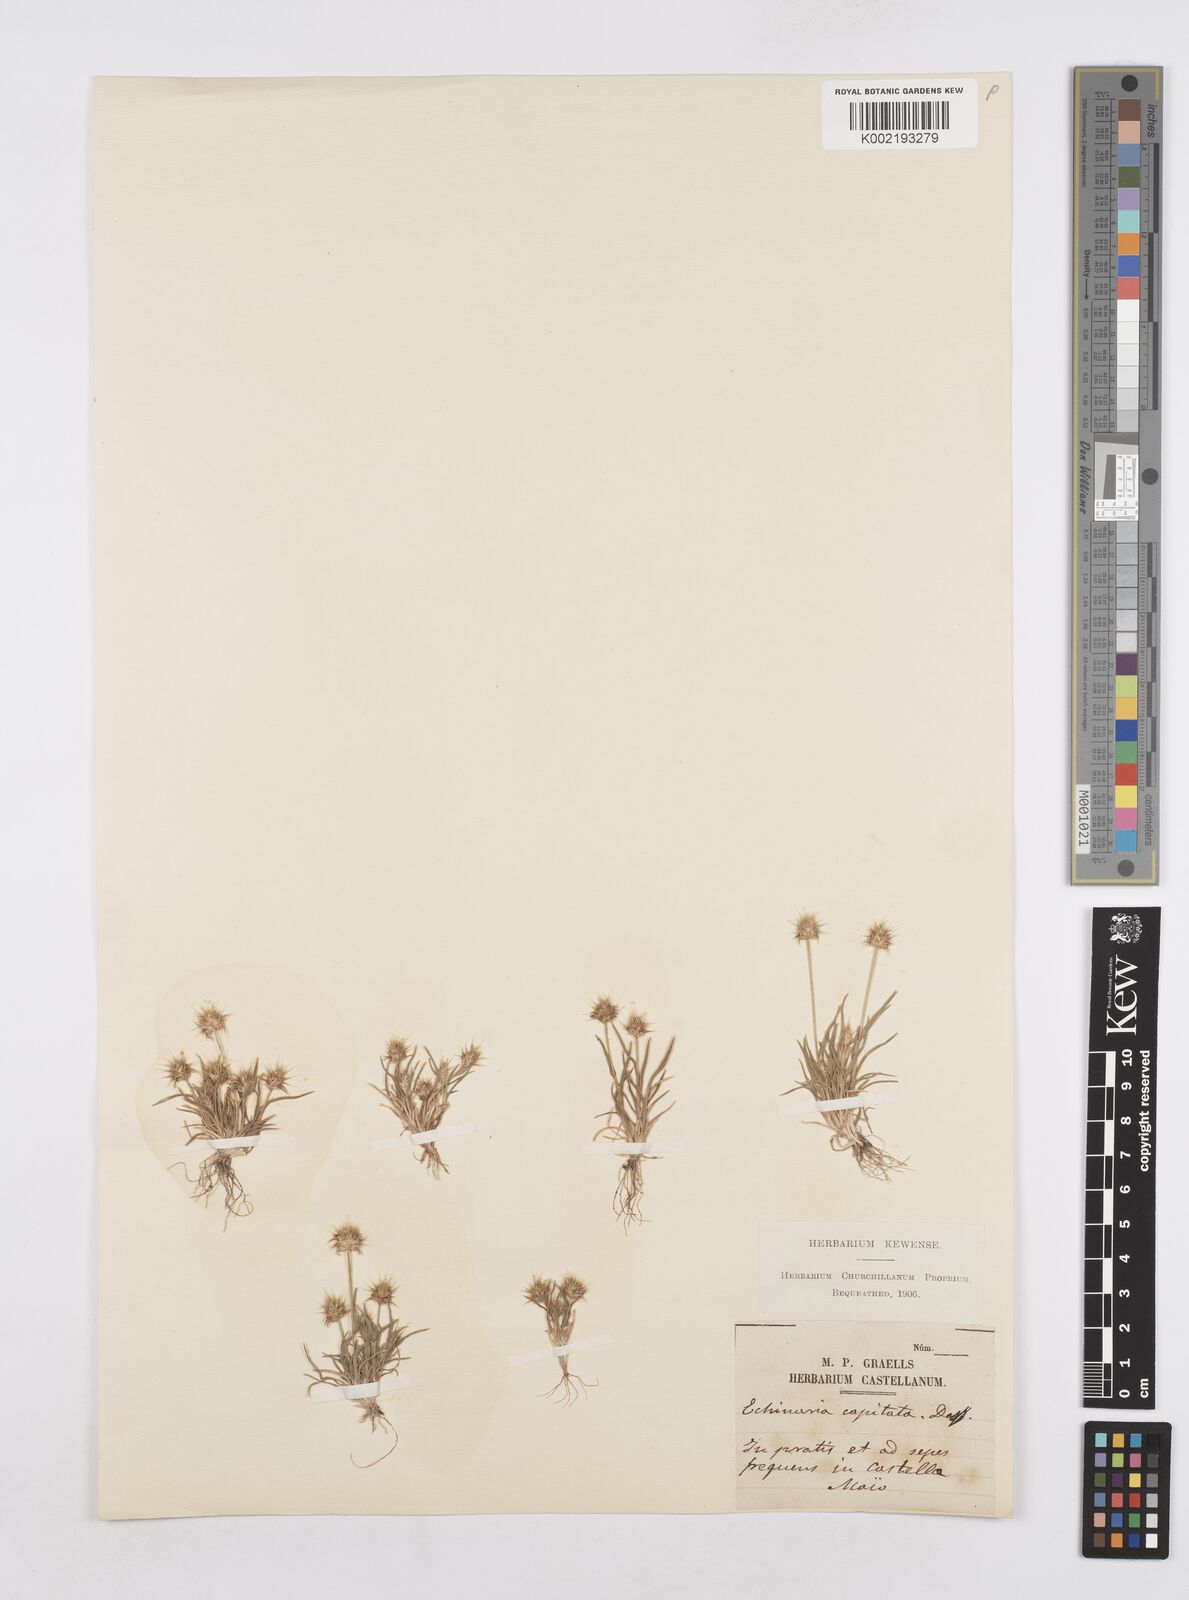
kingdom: Plantae
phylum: Tracheophyta
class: Liliopsida
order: Poales
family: Poaceae
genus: Echinaria
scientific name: Echinaria capitata
